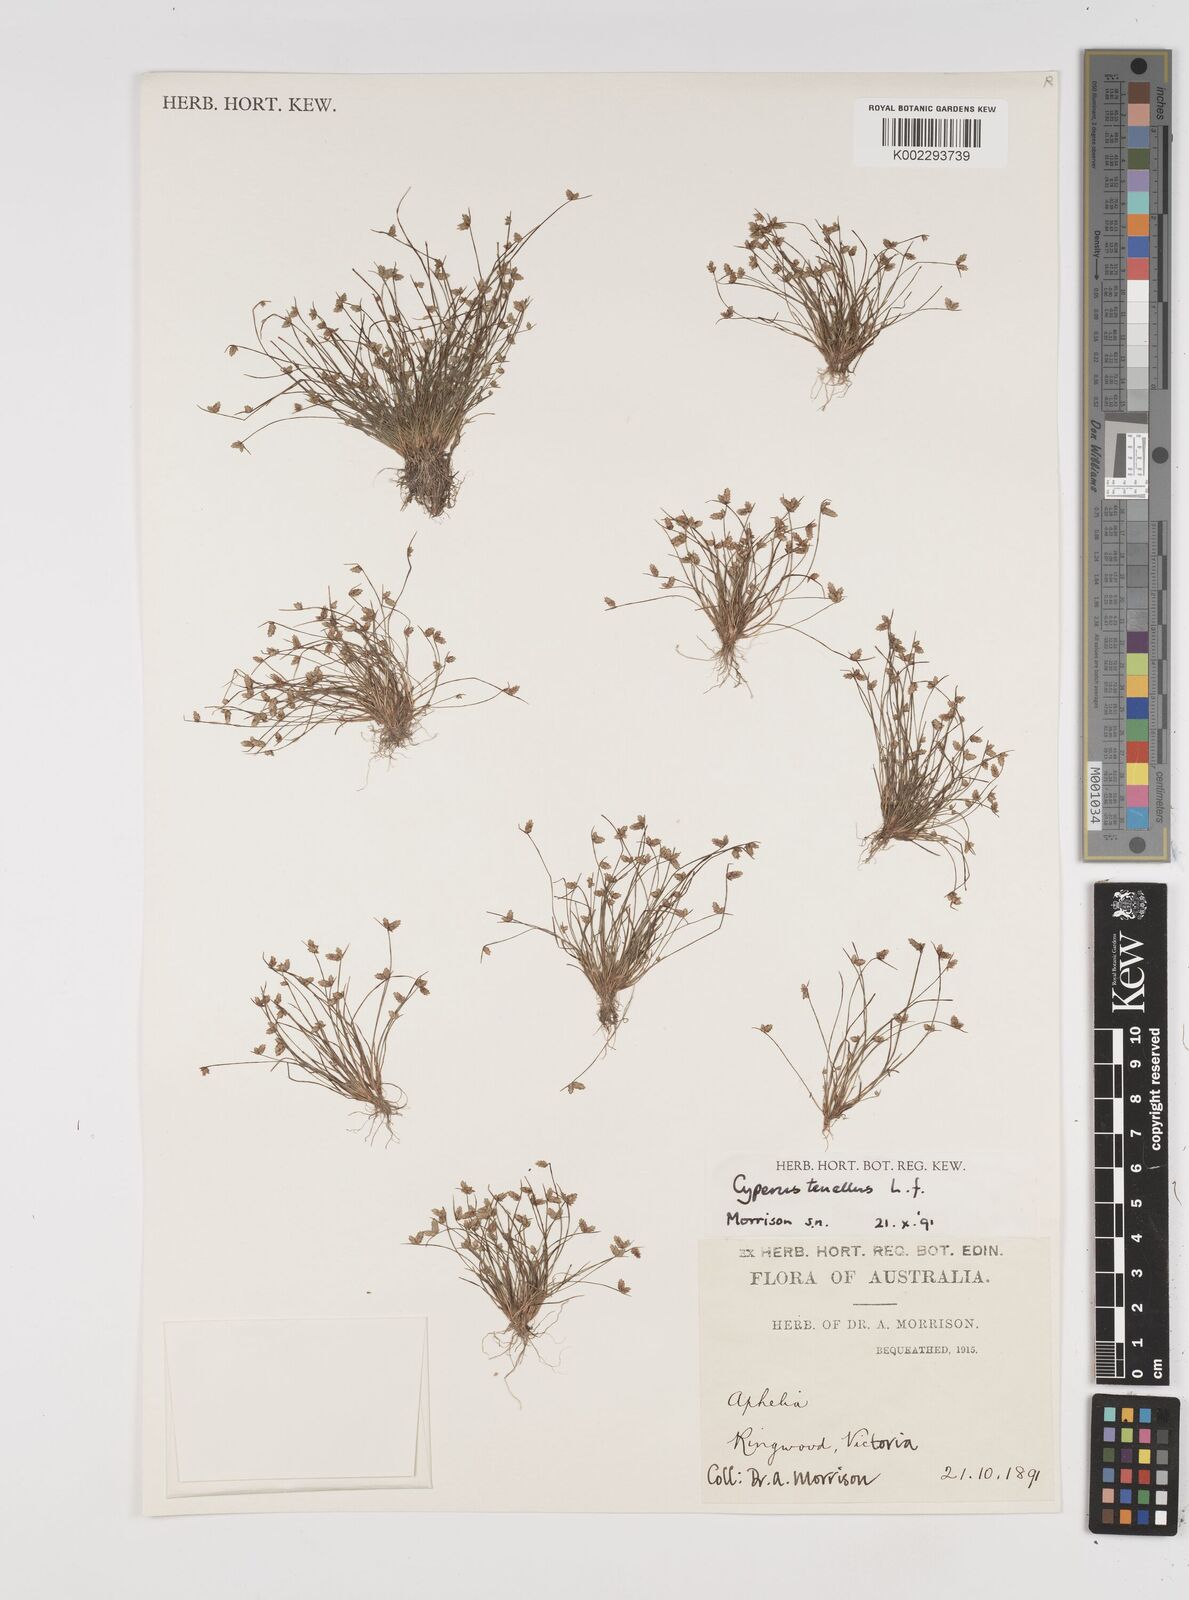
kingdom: Plantae
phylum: Tracheophyta
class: Liliopsida
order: Poales
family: Cyperaceae
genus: Isolepis
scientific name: Isolepis levynsiana
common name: Sedge
